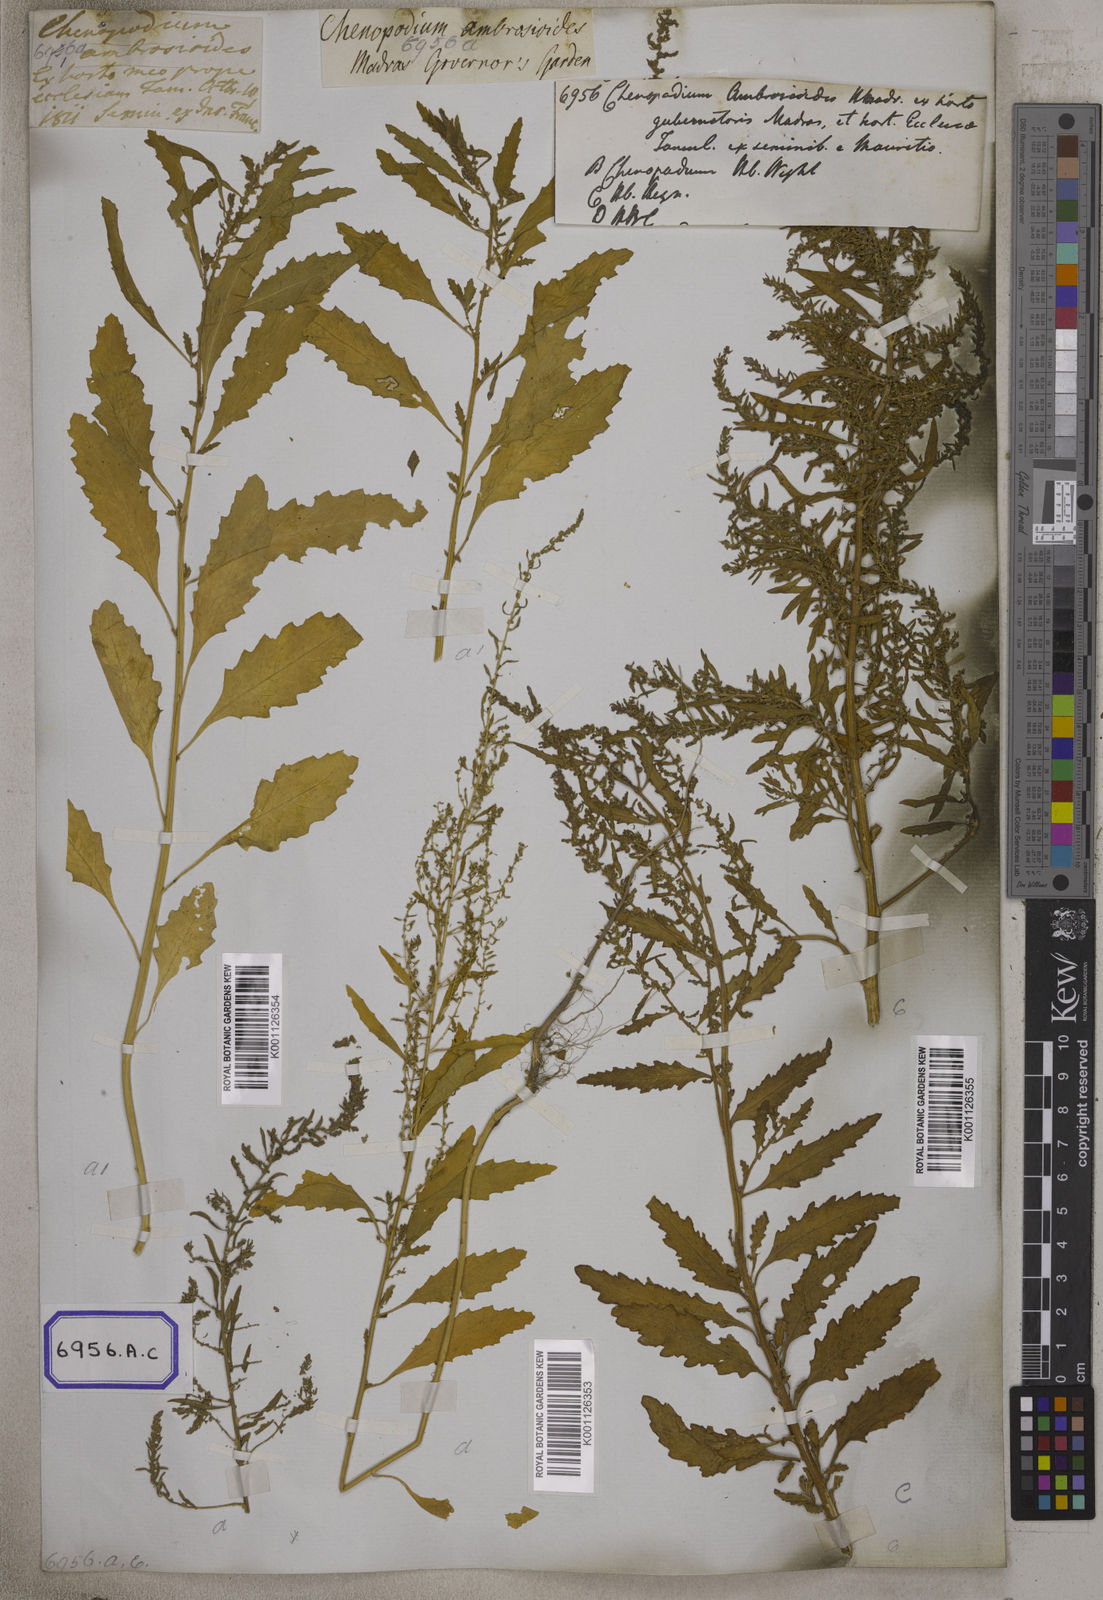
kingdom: Plantae
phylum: Tracheophyta
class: Magnoliopsida
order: Caryophyllales
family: Amaranthaceae
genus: Dysphania
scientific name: Dysphania ambrosioides
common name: Wormseed
